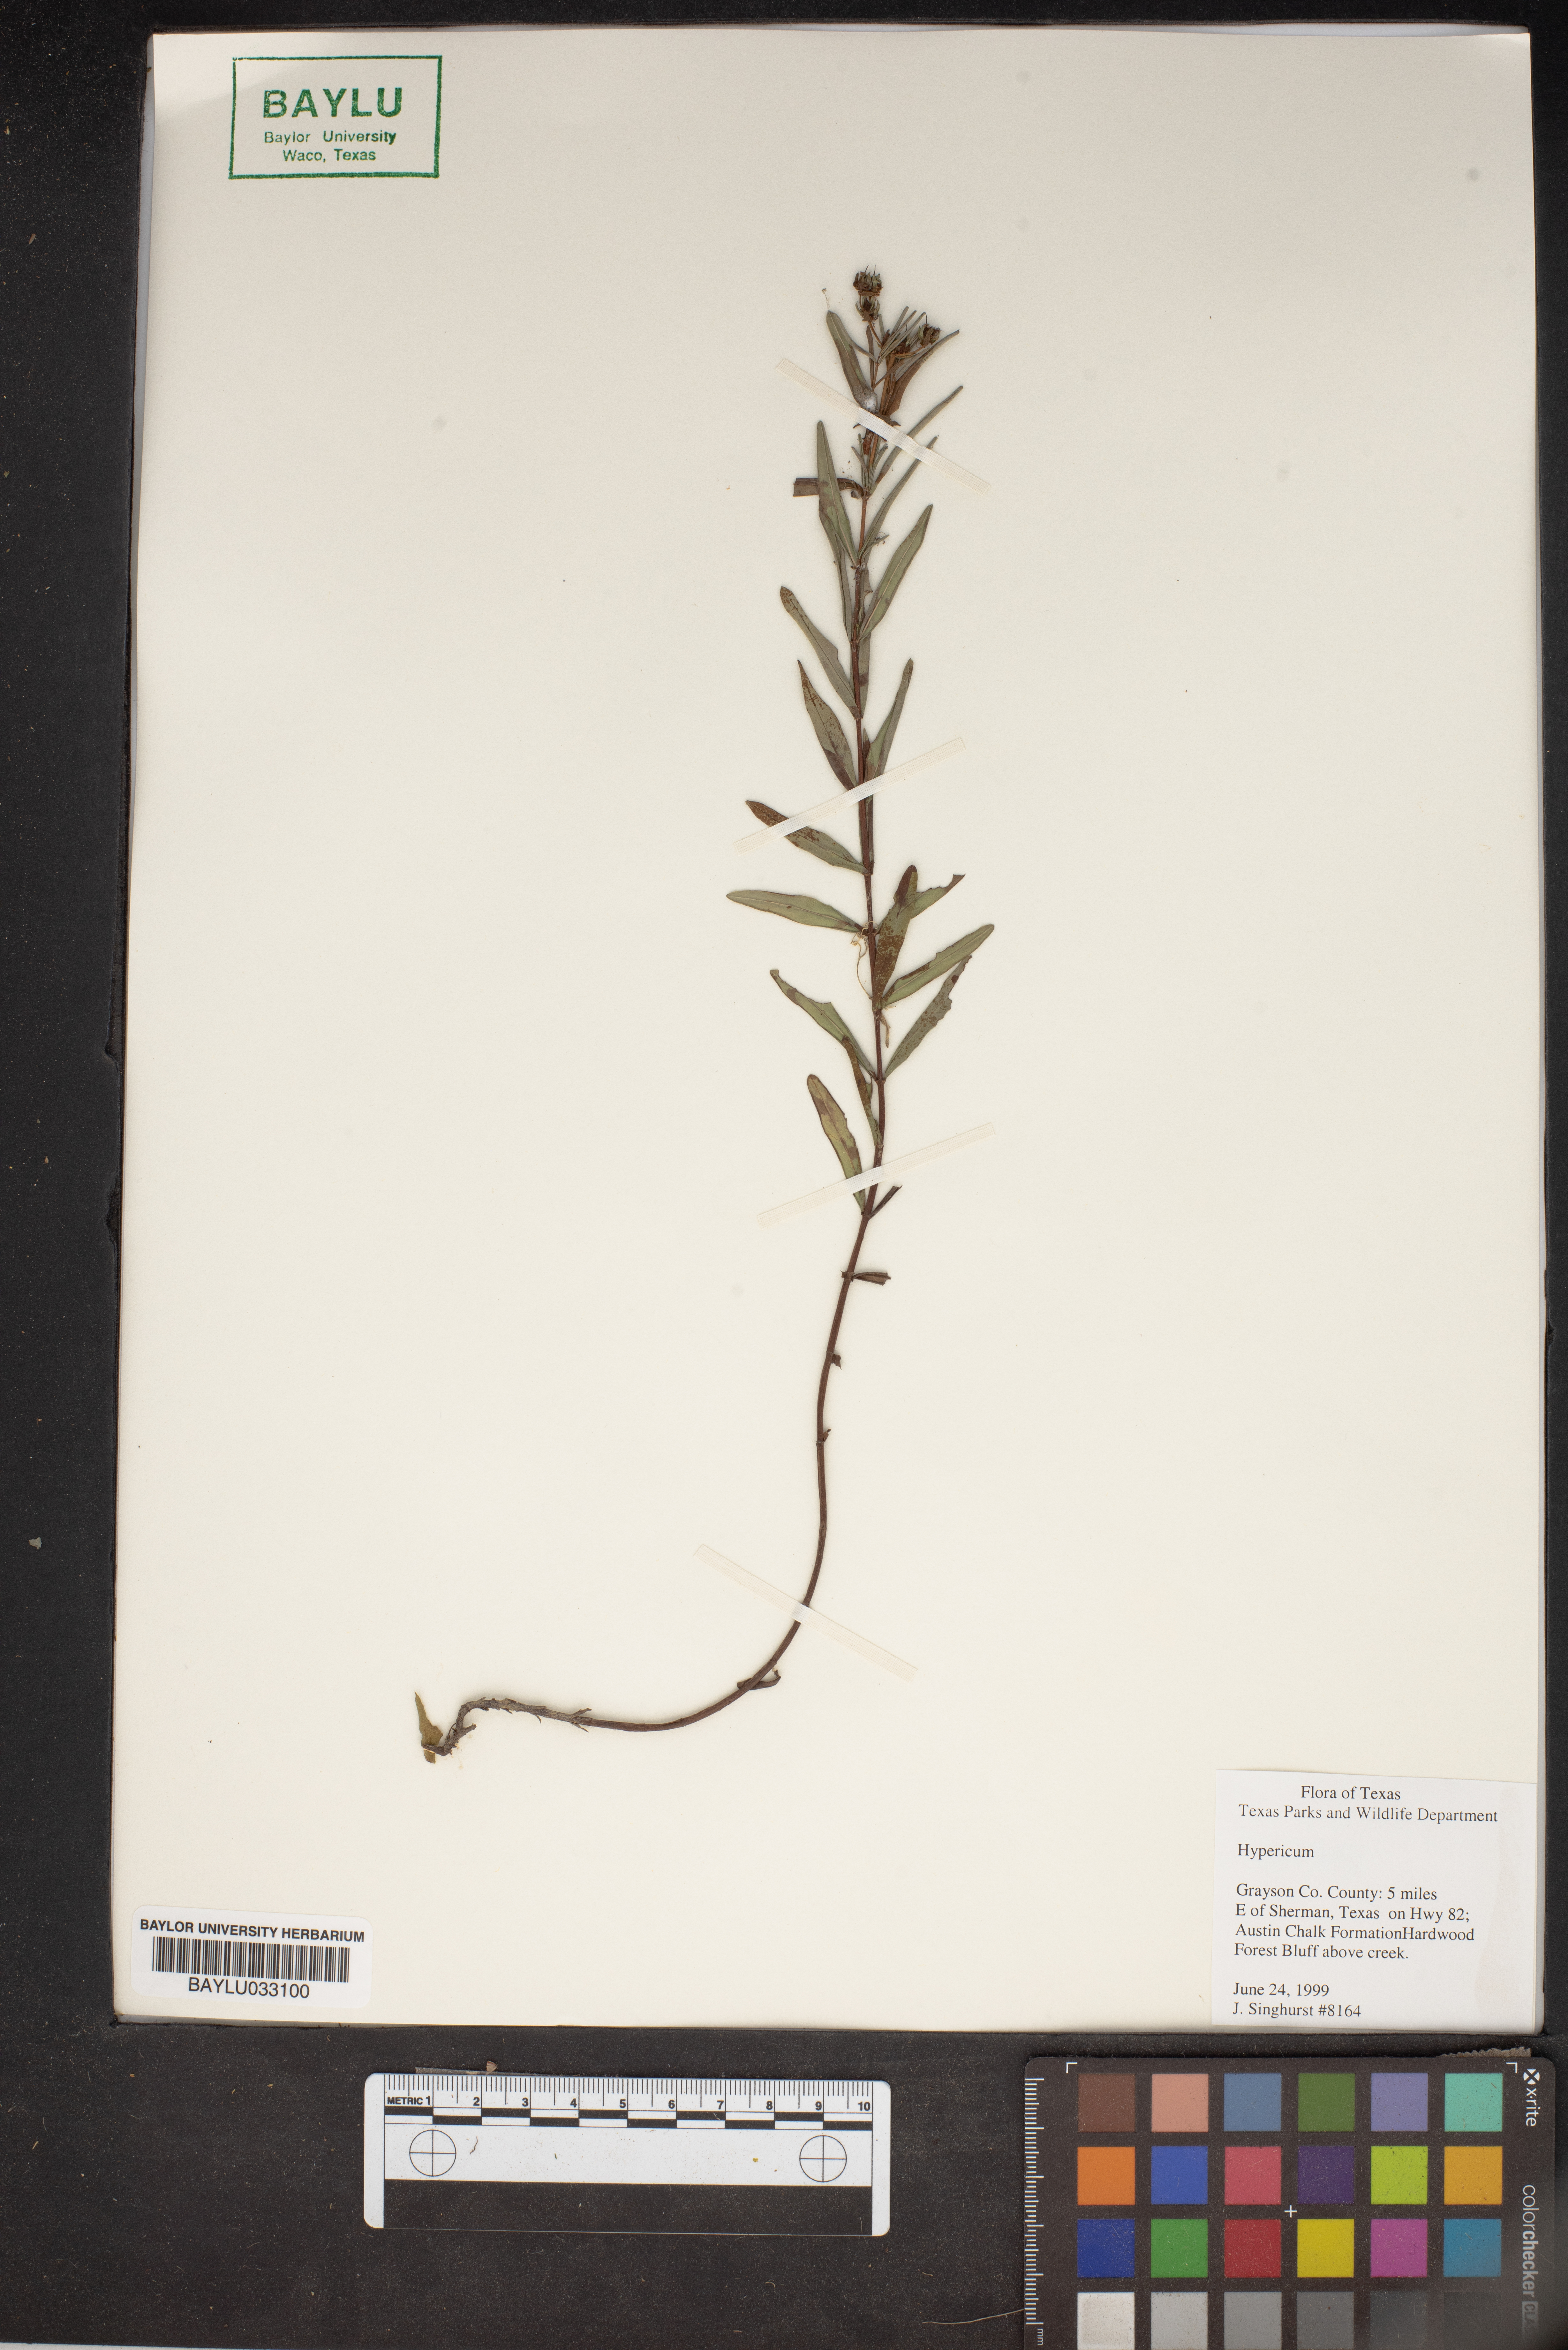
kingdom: Plantae
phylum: Tracheophyta
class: Magnoliopsida
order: Malpighiales
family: Hypericaceae
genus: Hypericum
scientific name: Hypericum
